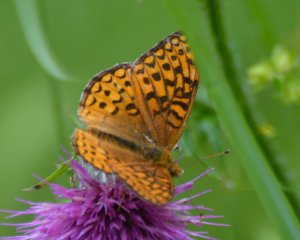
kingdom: Animalia
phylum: Arthropoda
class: Insecta
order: Lepidoptera
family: Nymphalidae
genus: Speyeria
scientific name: Speyeria atlantis
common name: Atlantis Fritillary
